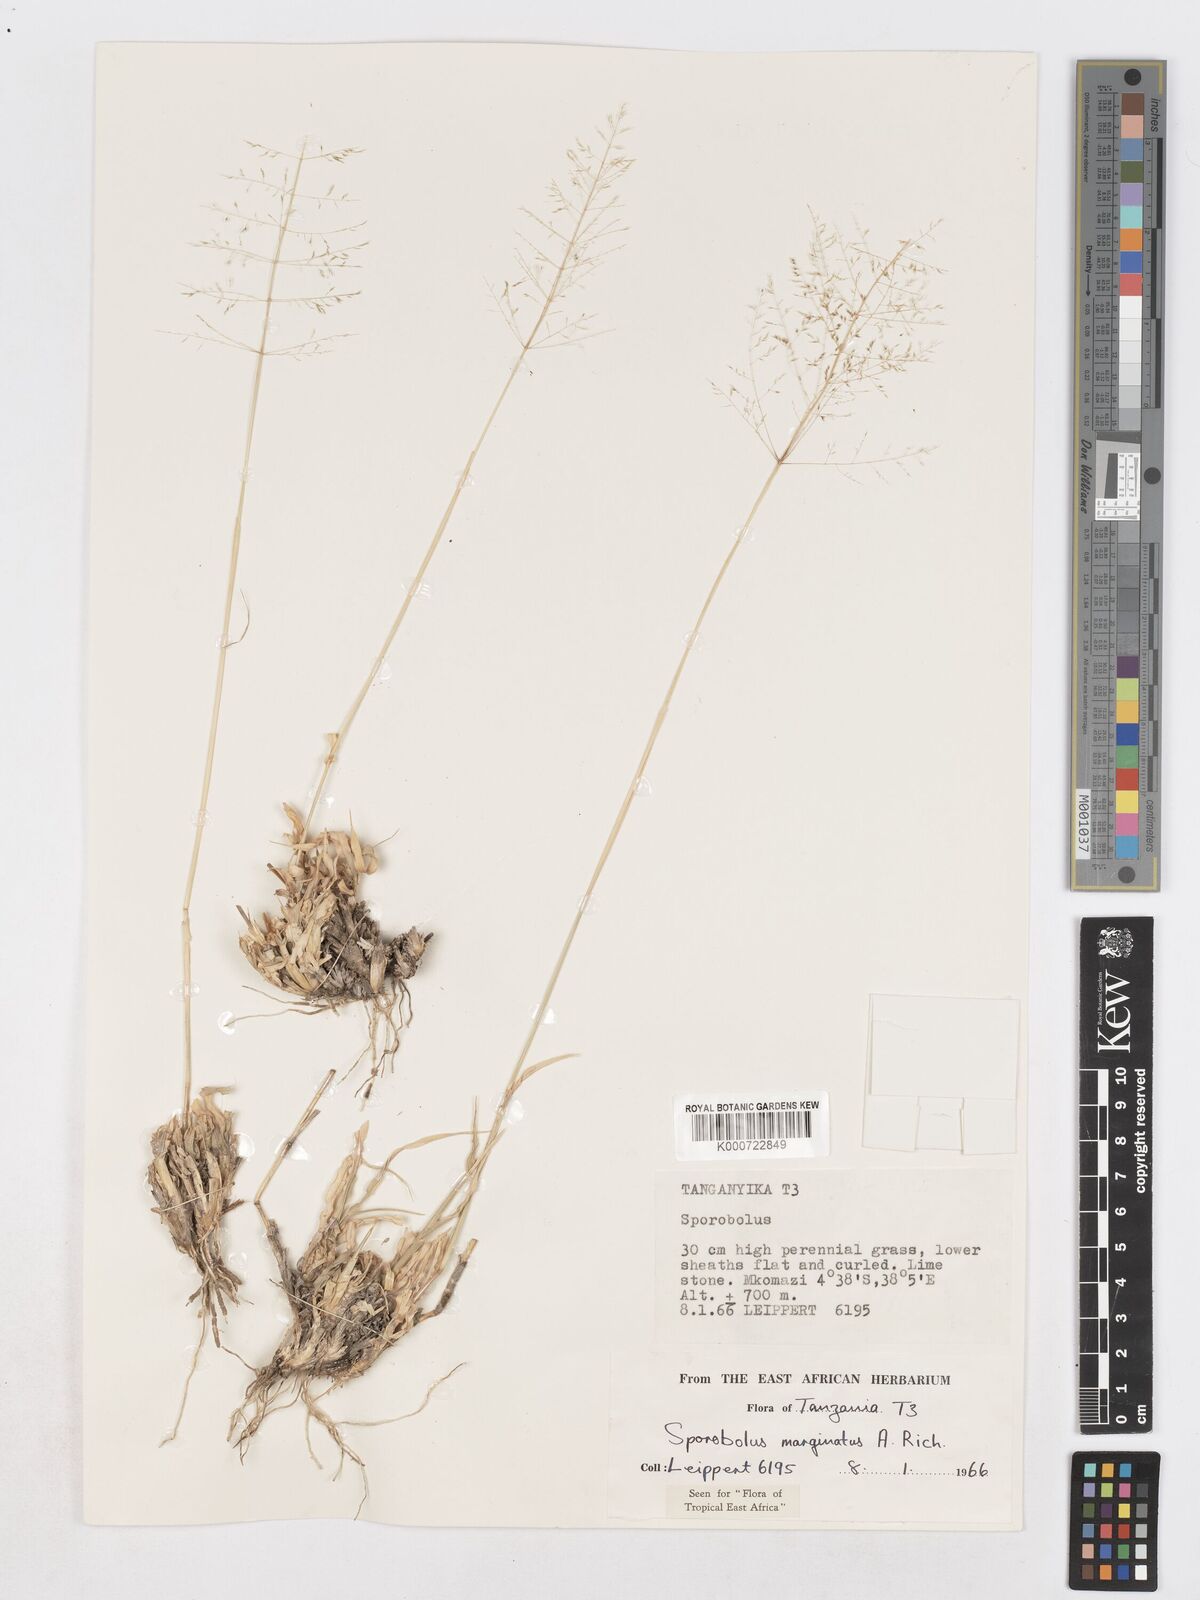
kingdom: Plantae
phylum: Tracheophyta
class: Liliopsida
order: Poales
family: Poaceae
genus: Sporobolus
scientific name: Sporobolus ioclados
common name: Pan dropseed
